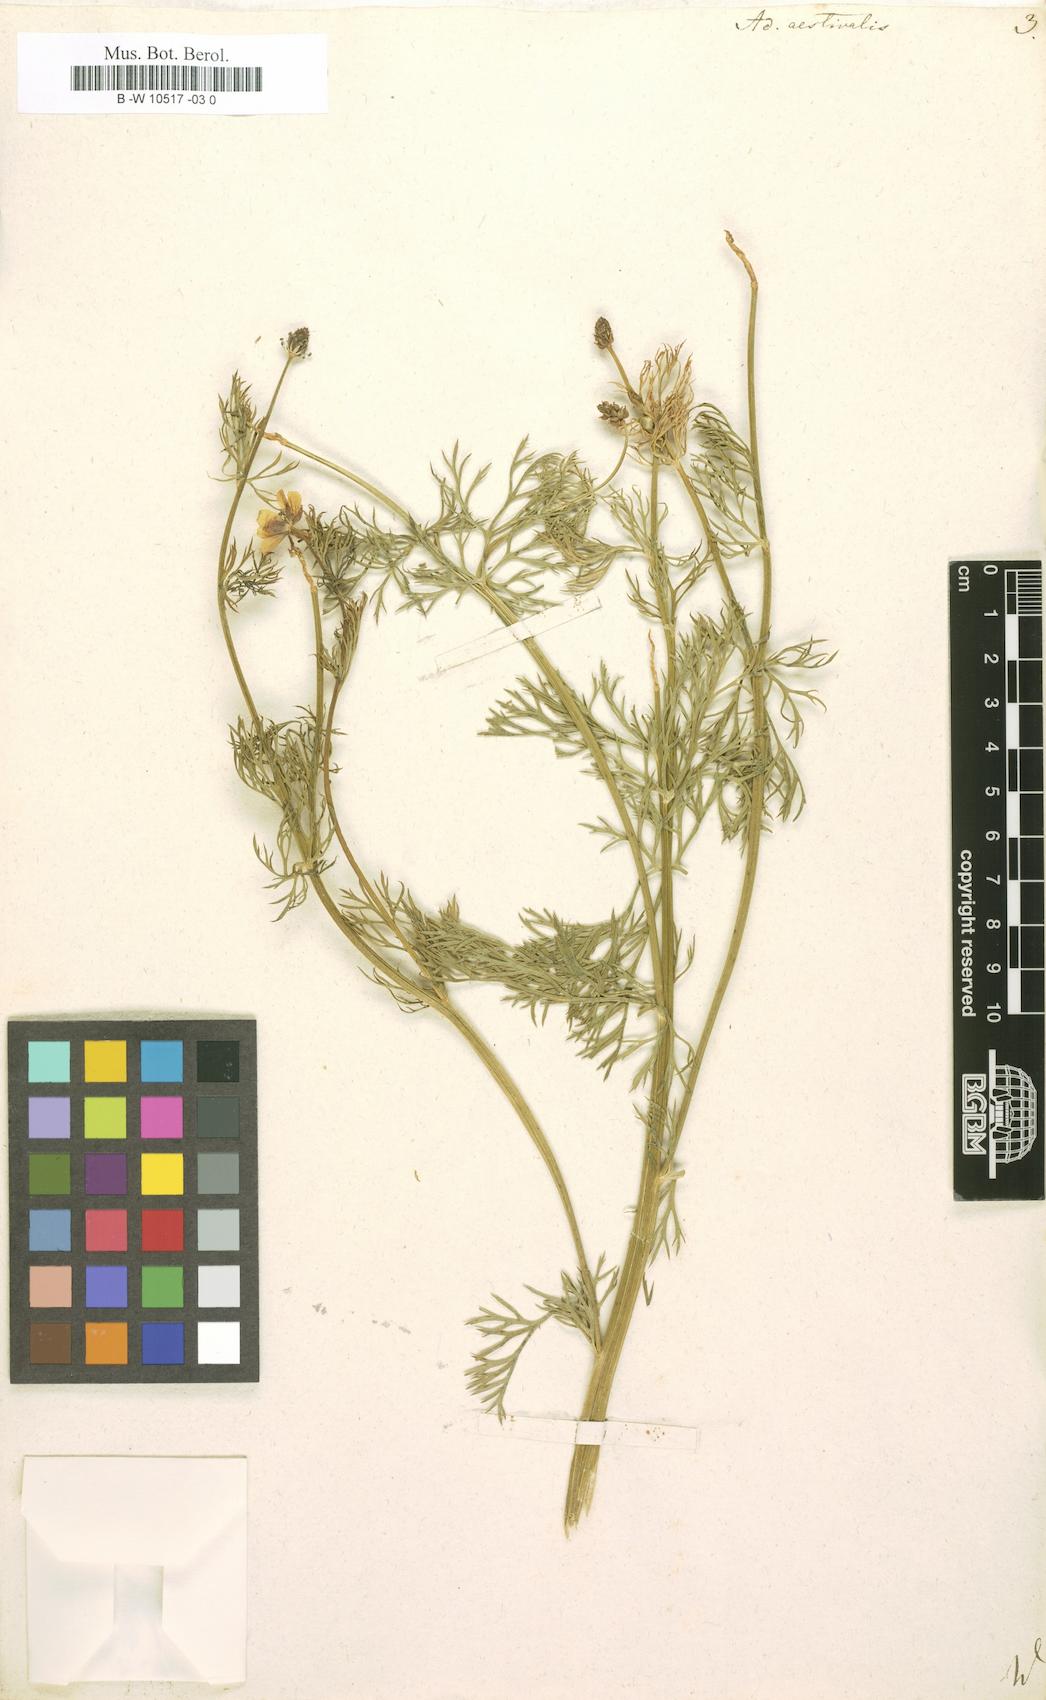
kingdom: Plantae
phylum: Tracheophyta
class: Magnoliopsida
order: Ranunculales
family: Ranunculaceae
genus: Adonis
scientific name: Adonis aestivalis
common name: Summer pheasant's-eye
